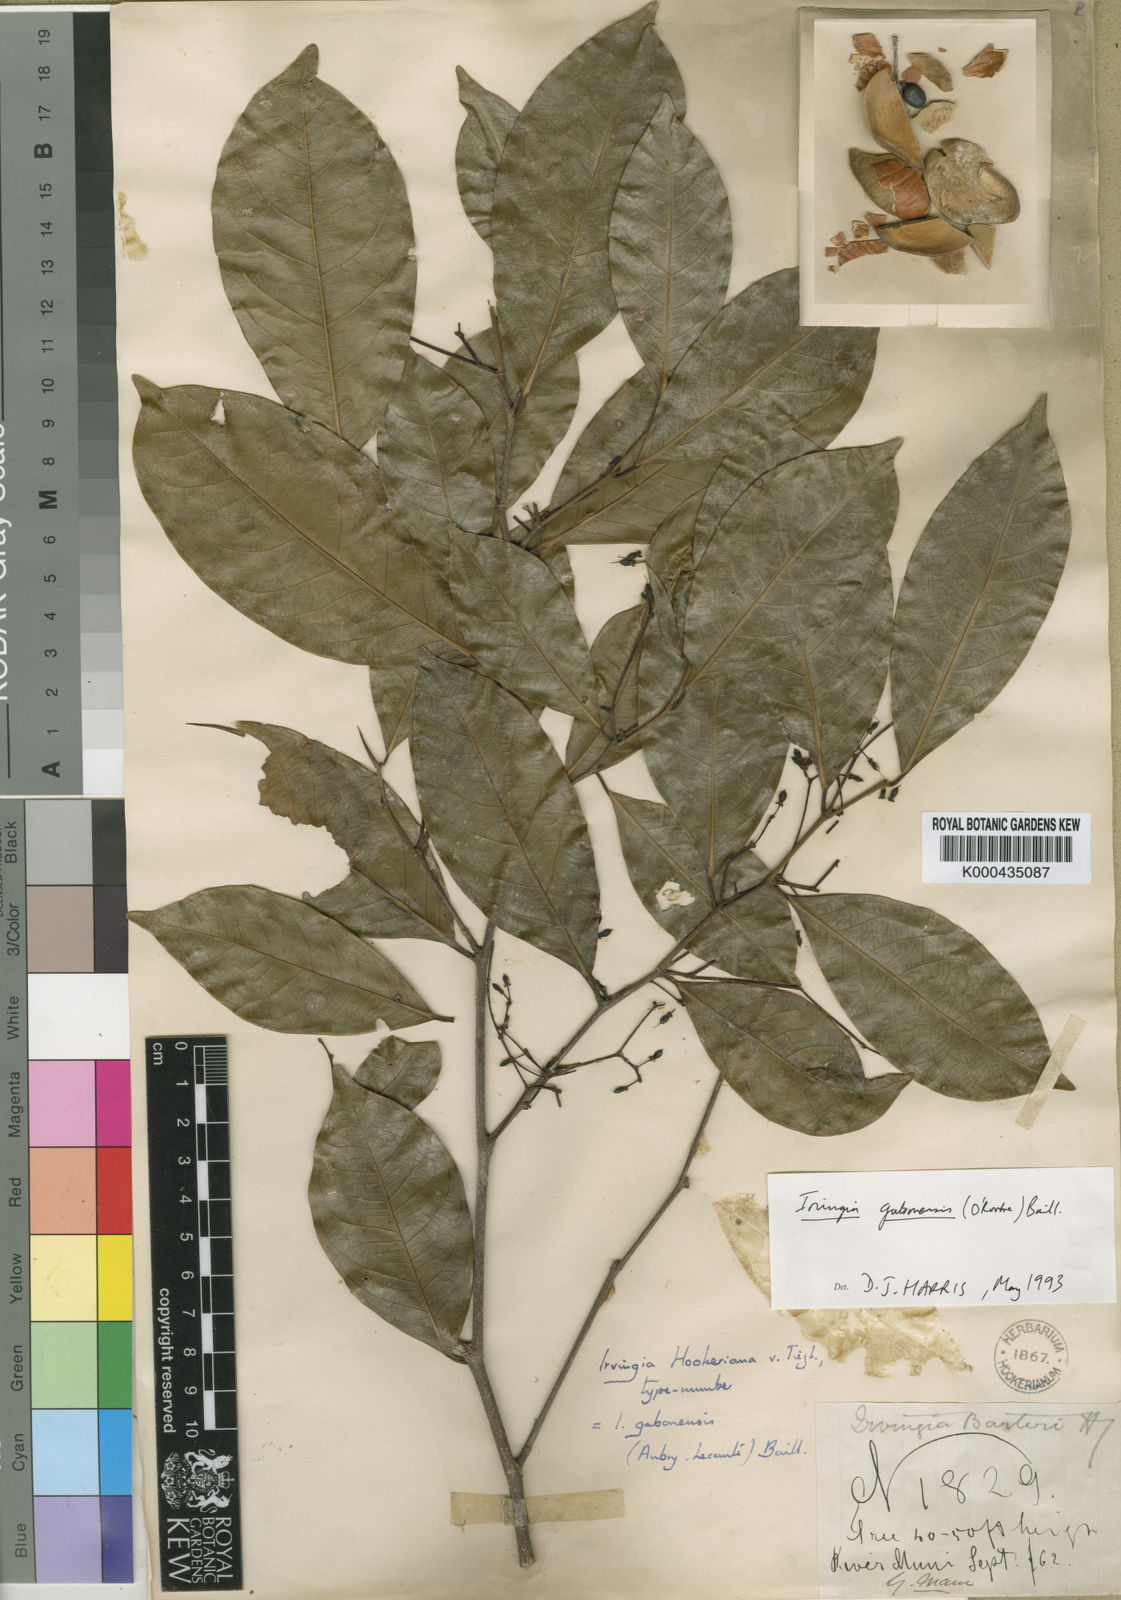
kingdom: Plantae
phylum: Tracheophyta
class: Magnoliopsida
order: Malpighiales
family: Irvingiaceae
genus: Irvingia
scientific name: Irvingia gabonensis
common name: Rainy season bush-mango
